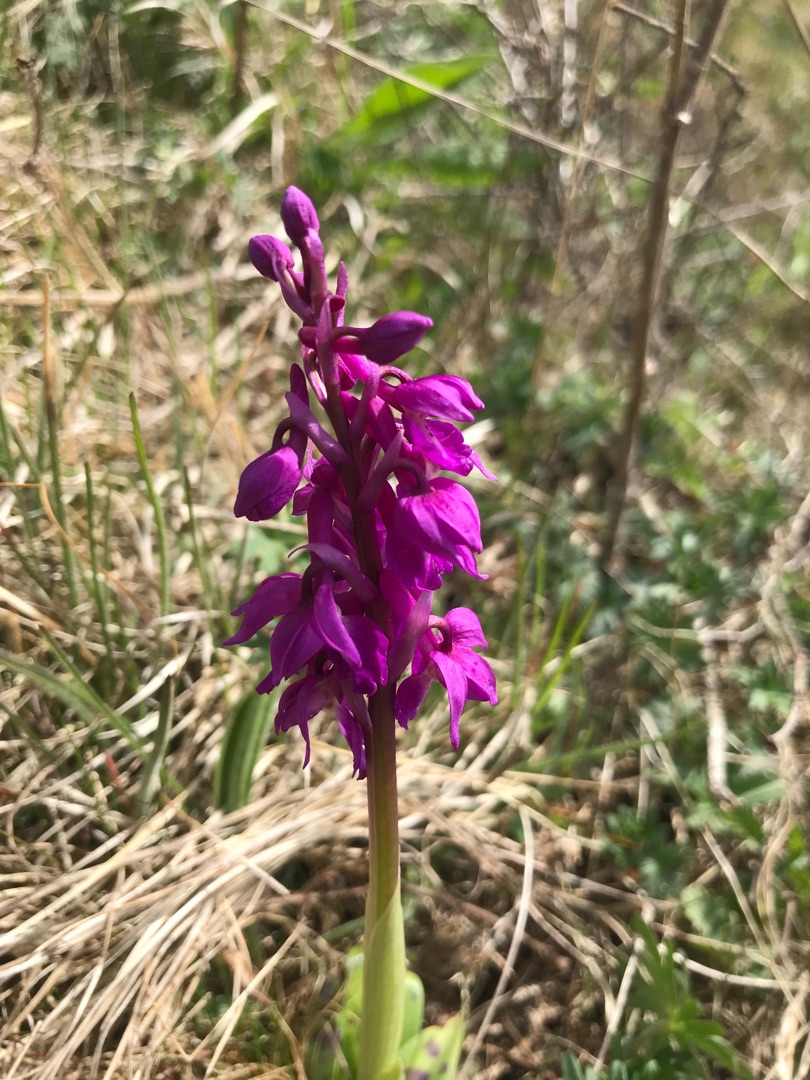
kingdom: Plantae
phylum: Tracheophyta
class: Liliopsida
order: Asparagales
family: Orchidaceae
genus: Orchis
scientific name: Orchis mascula
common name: Tyndakset gøgeurt
